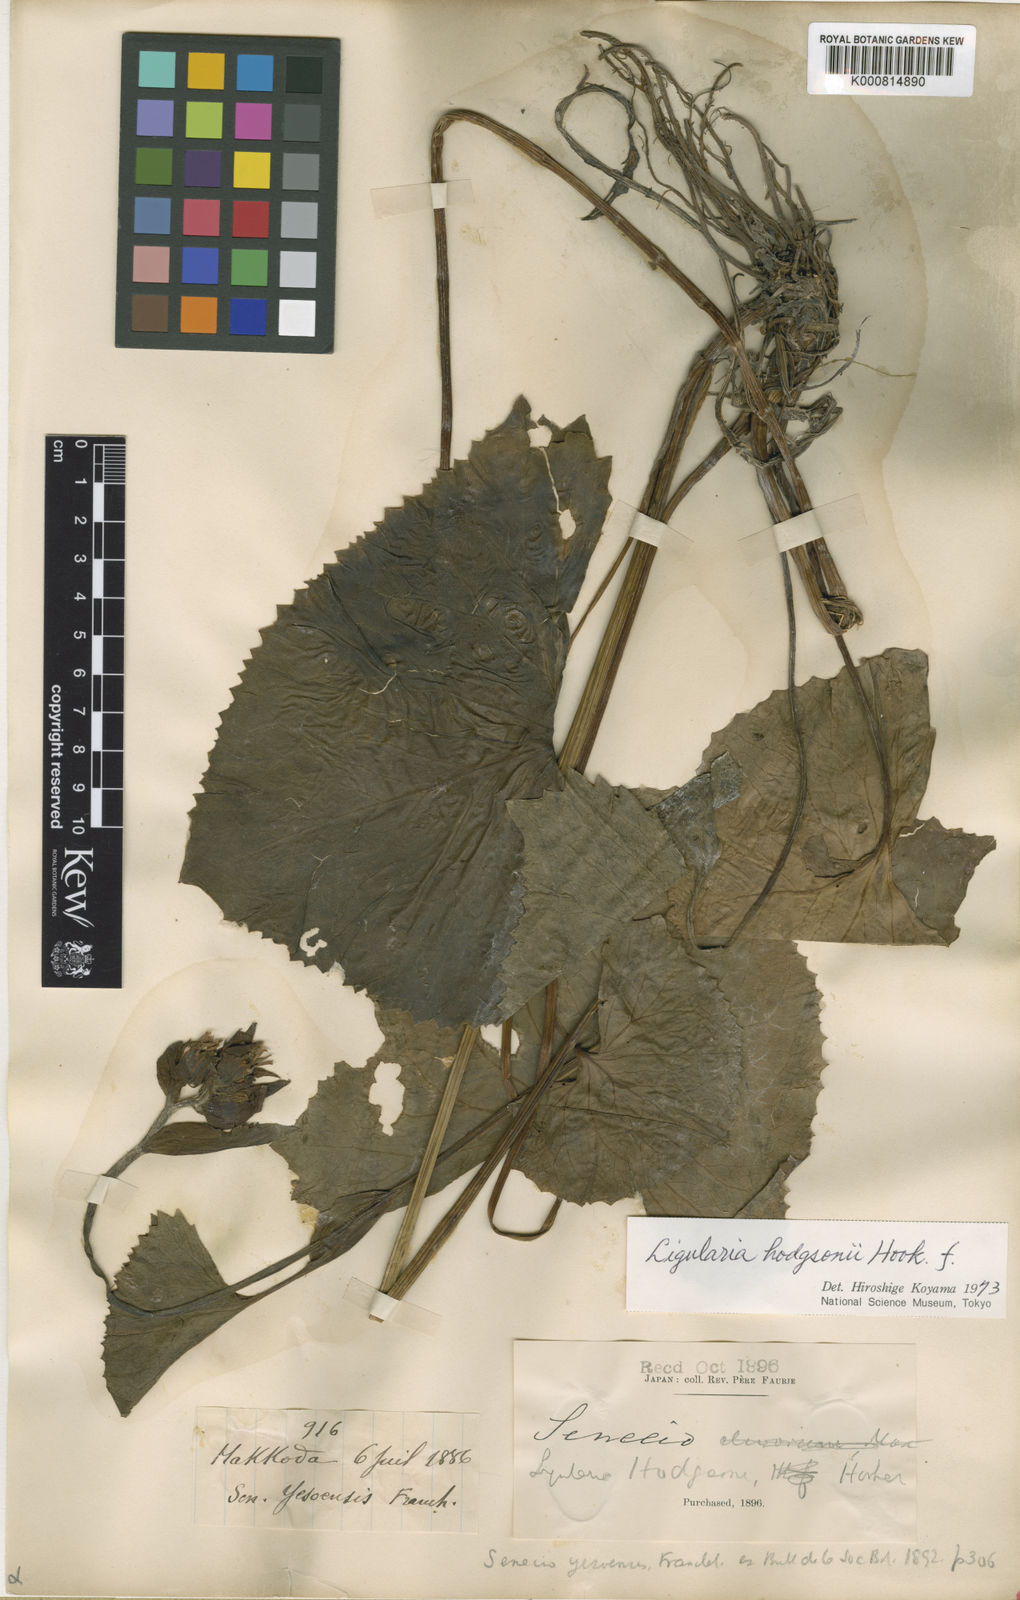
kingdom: Plantae
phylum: Tracheophyta
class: Magnoliopsida
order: Asterales
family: Asteraceae
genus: Ligularia
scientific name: Ligularia hodgsonii
